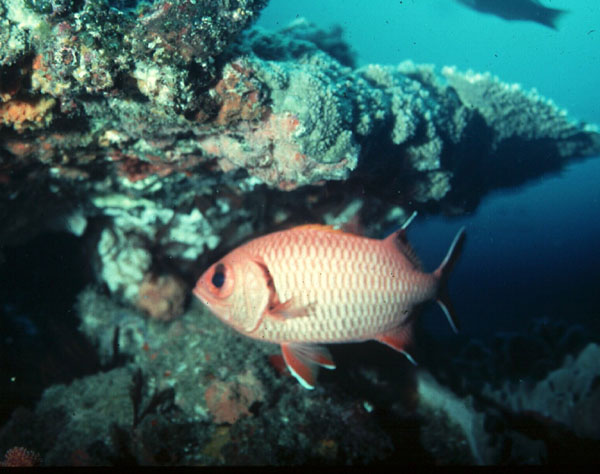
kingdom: Animalia
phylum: Chordata
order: Beryciformes
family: Holocentridae
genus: Myripristis
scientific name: Myripristis berndti
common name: Bigscale soldierfish
